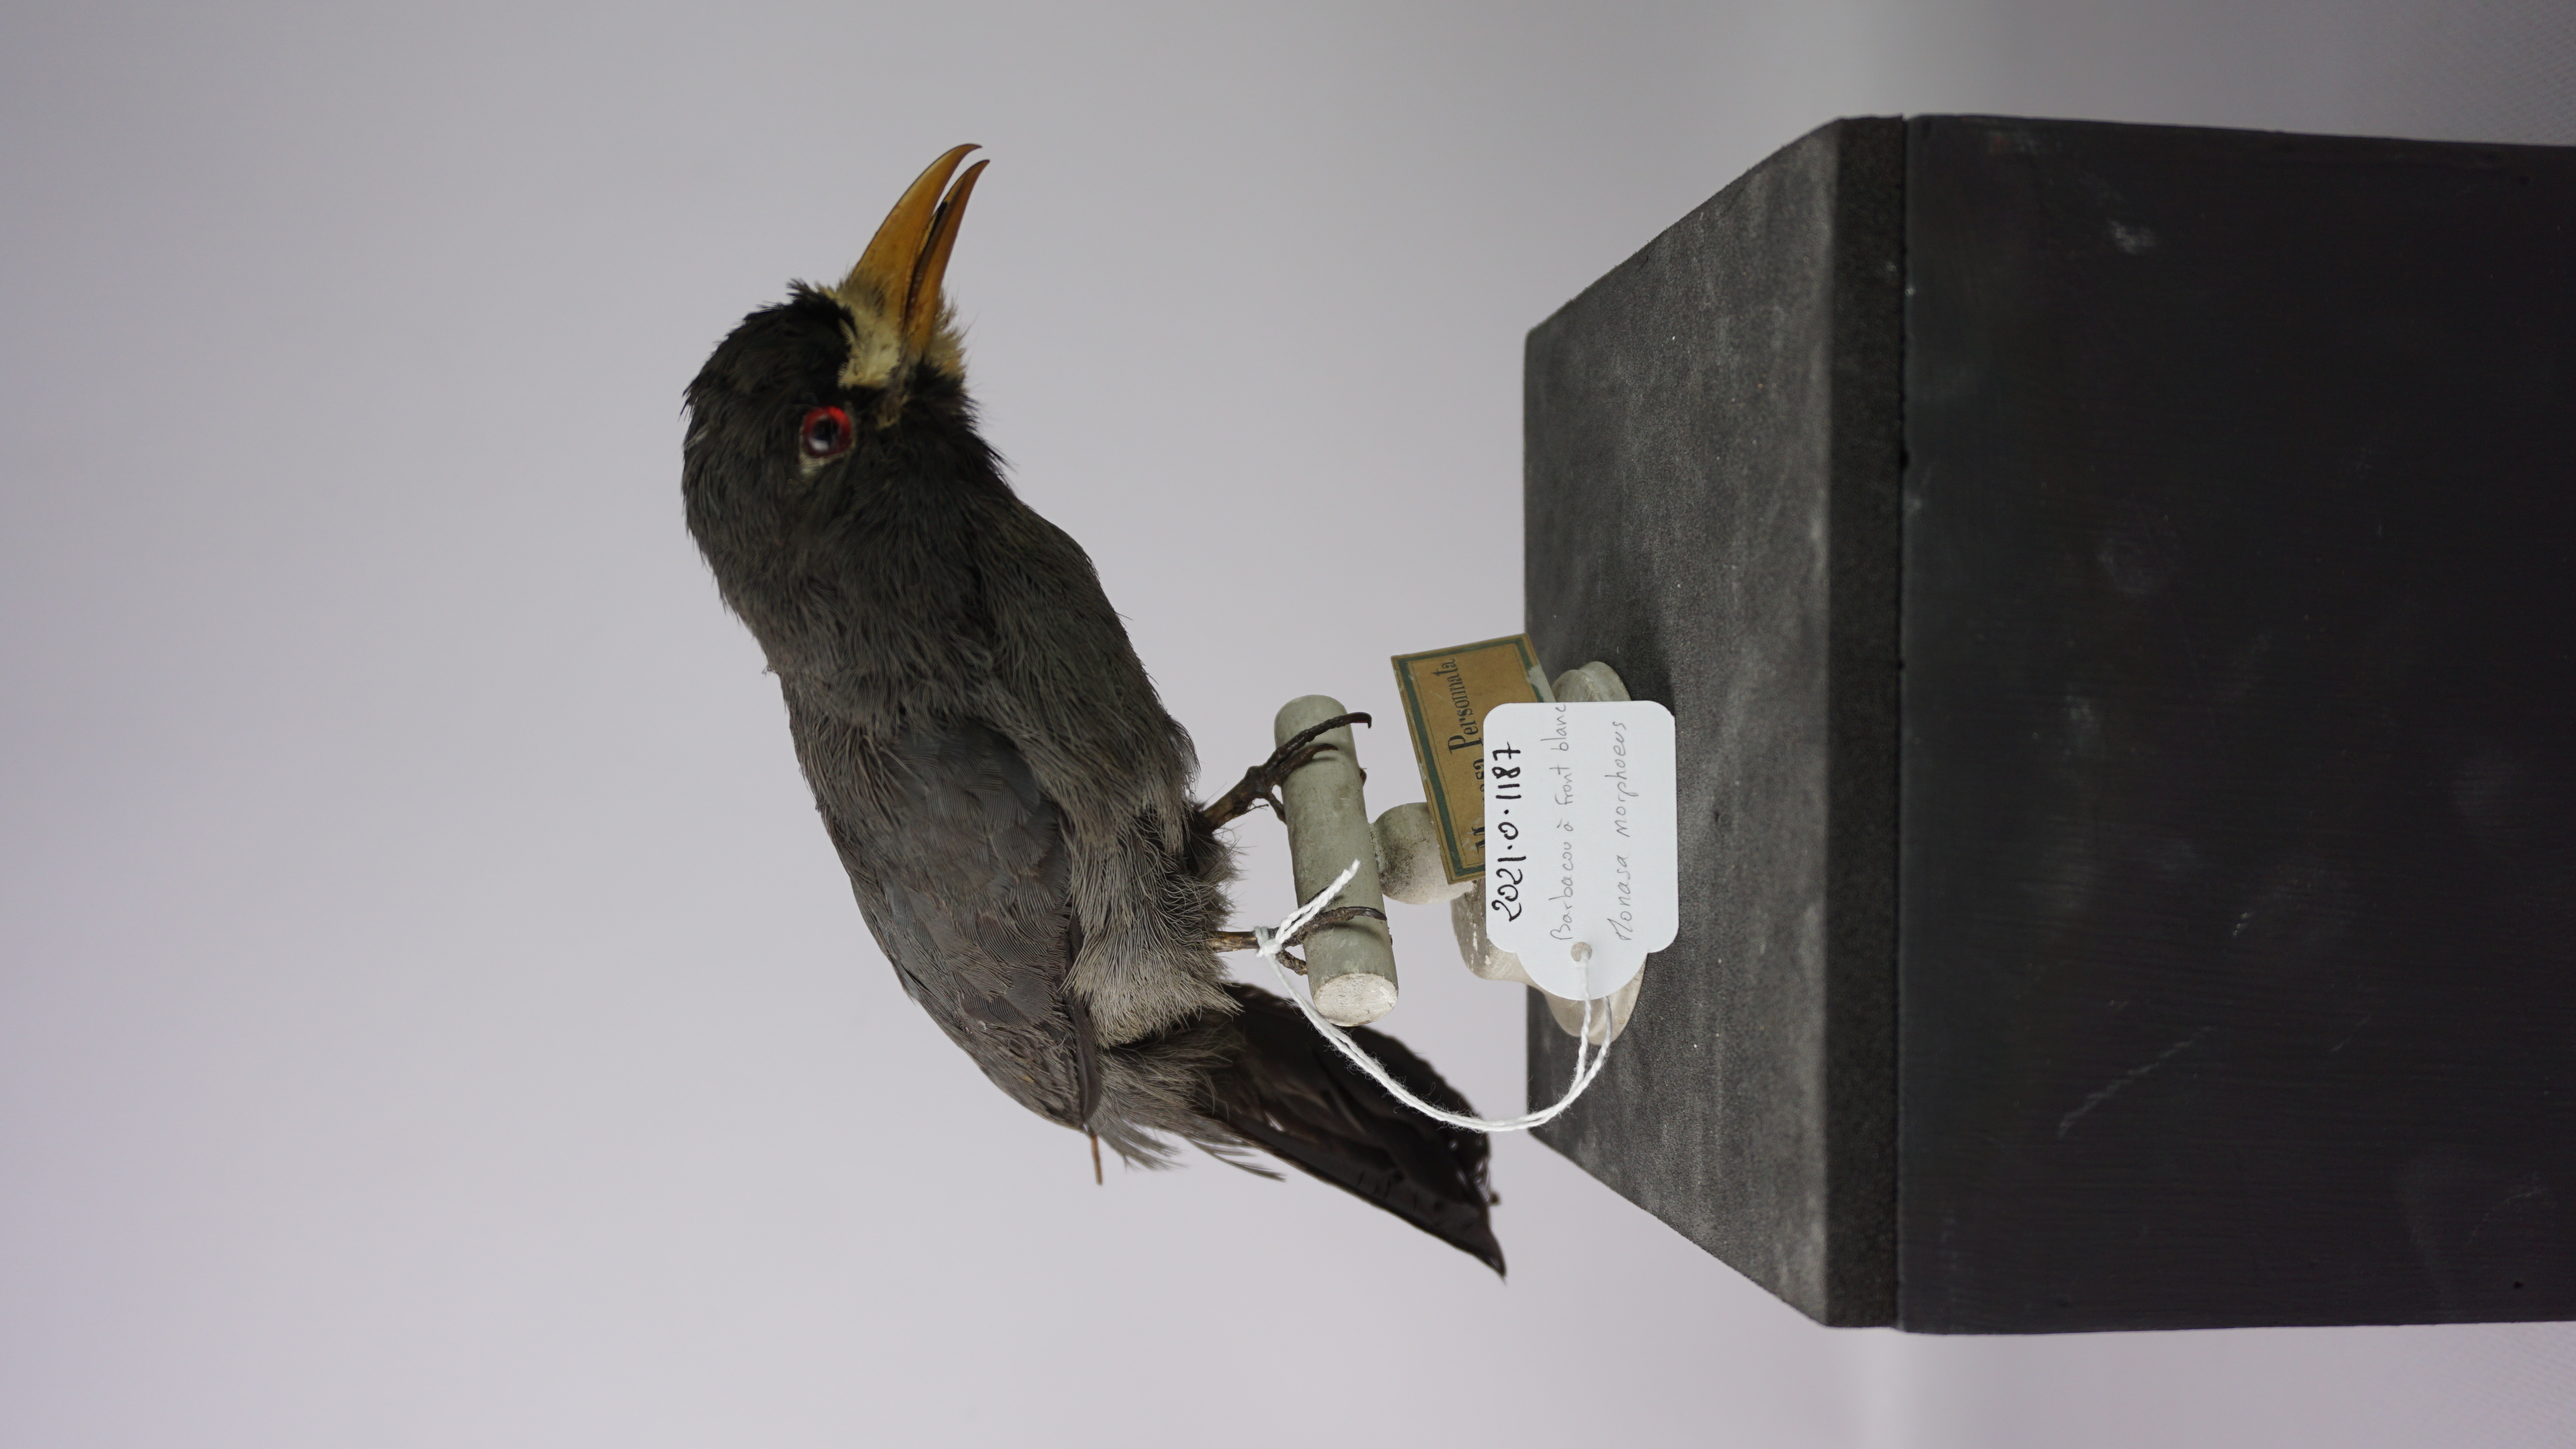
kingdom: Animalia
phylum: Chordata
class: Aves
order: Piciformes
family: Bucconidae
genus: Monasa
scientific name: Monasa morphoeus
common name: White-fronted nunbird
